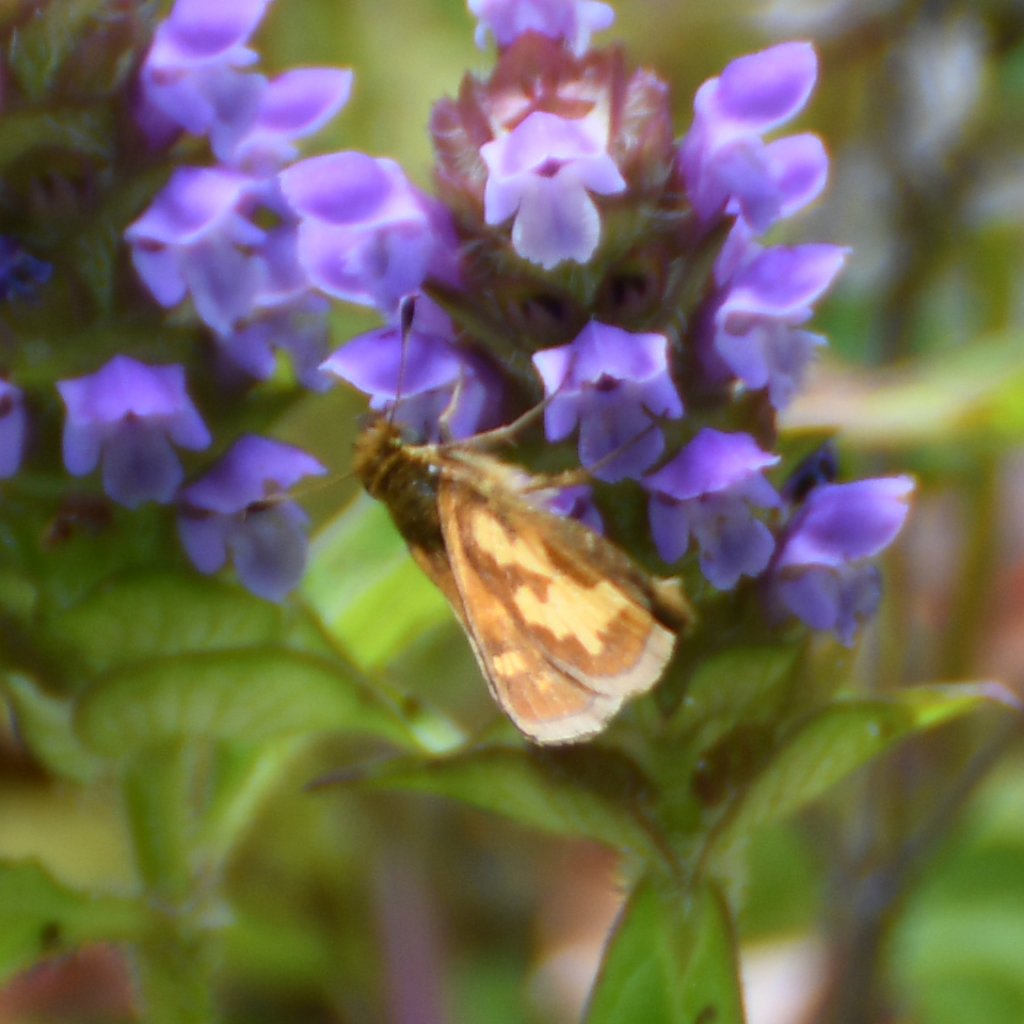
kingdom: Animalia
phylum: Arthropoda
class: Insecta
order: Lepidoptera
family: Hesperiidae
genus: Polites
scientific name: Polites coras
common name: Peck's Skipper
